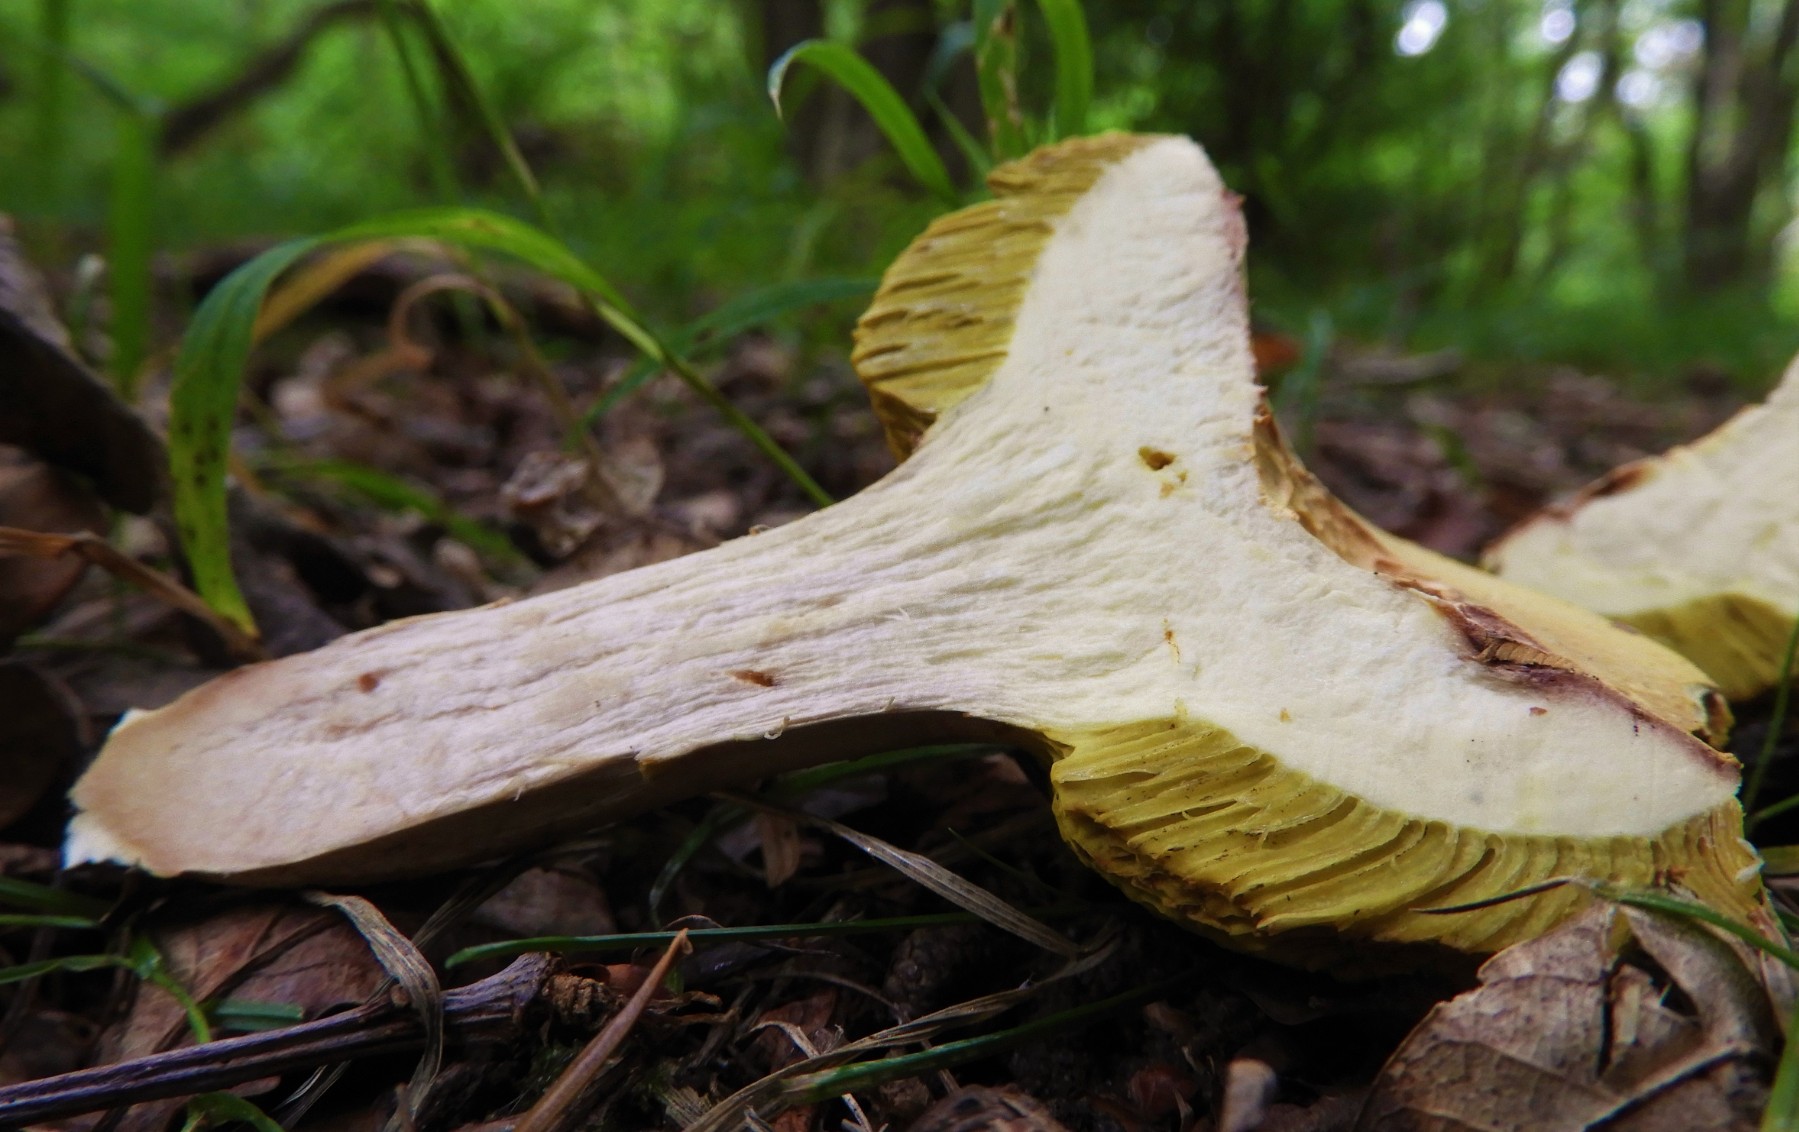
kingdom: Fungi
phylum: Basidiomycota
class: Agaricomycetes
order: Boletales
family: Boletaceae
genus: Xerocomus
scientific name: Xerocomus
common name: filtrørhat
